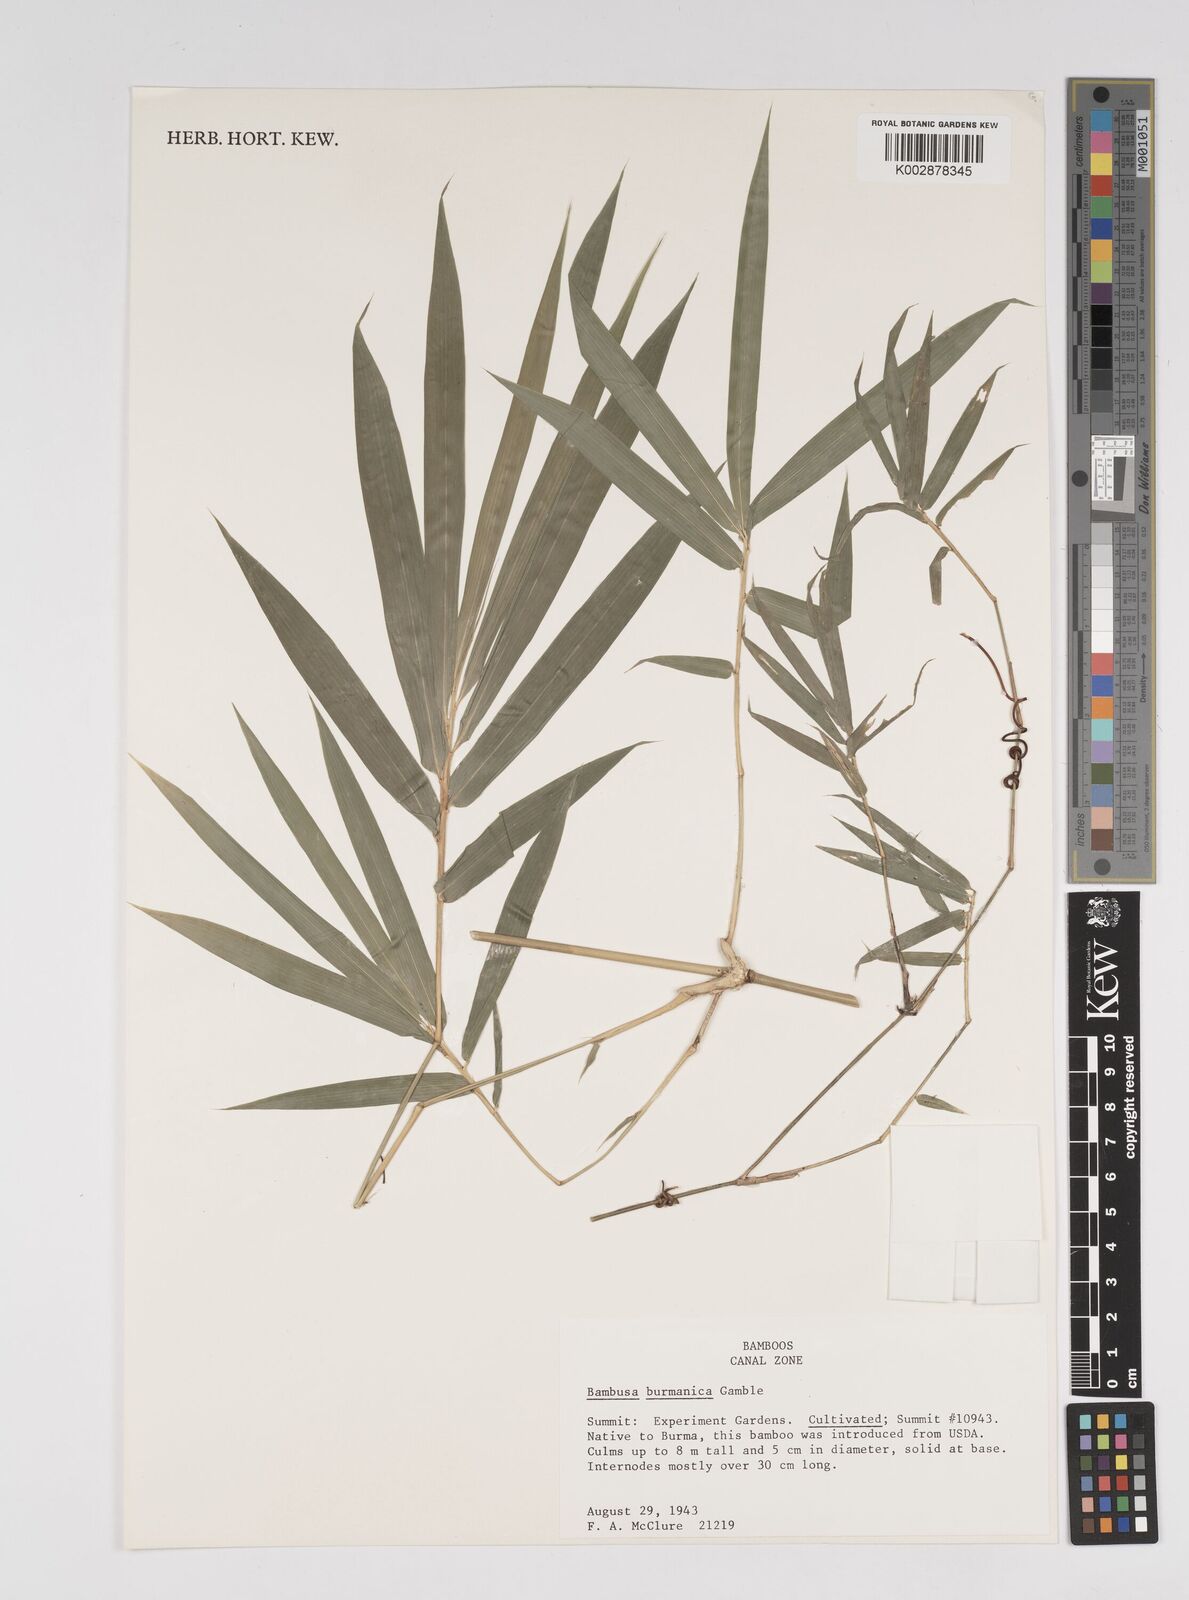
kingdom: Plantae
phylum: Tracheophyta
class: Liliopsida
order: Poales
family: Poaceae
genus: Bambusa
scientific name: Bambusa burmanica
